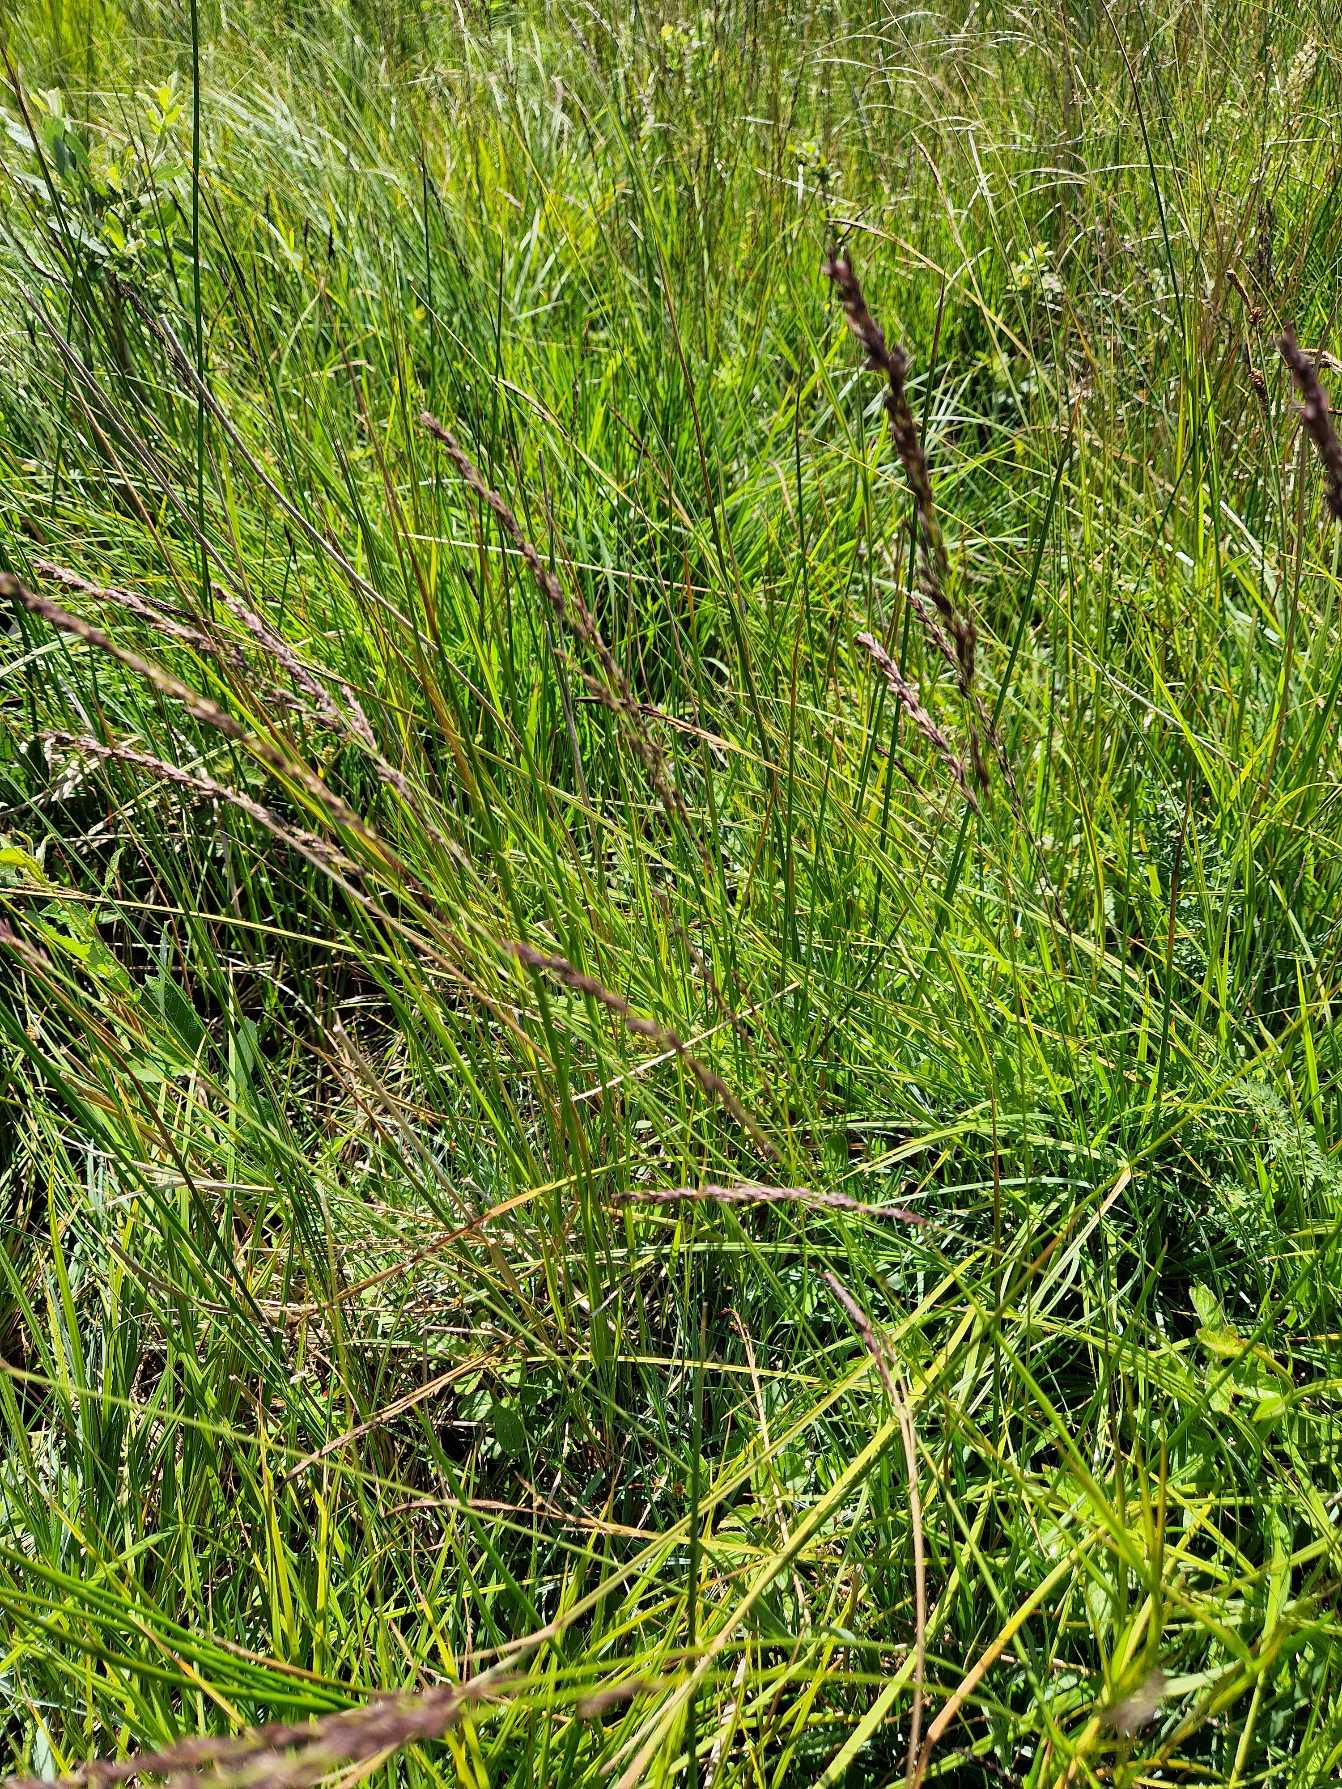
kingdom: Plantae
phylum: Tracheophyta
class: Liliopsida
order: Poales
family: Poaceae
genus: Molinia
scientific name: Molinia caerulea
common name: Blåtop
